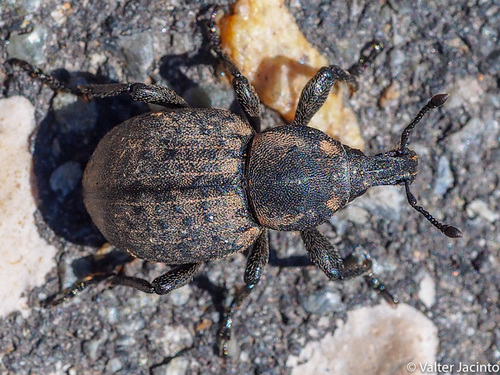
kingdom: Animalia
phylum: Arthropoda
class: Insecta
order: Coleoptera
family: Curculionidae
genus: Anisorhynchus
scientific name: Anisorhynchus
